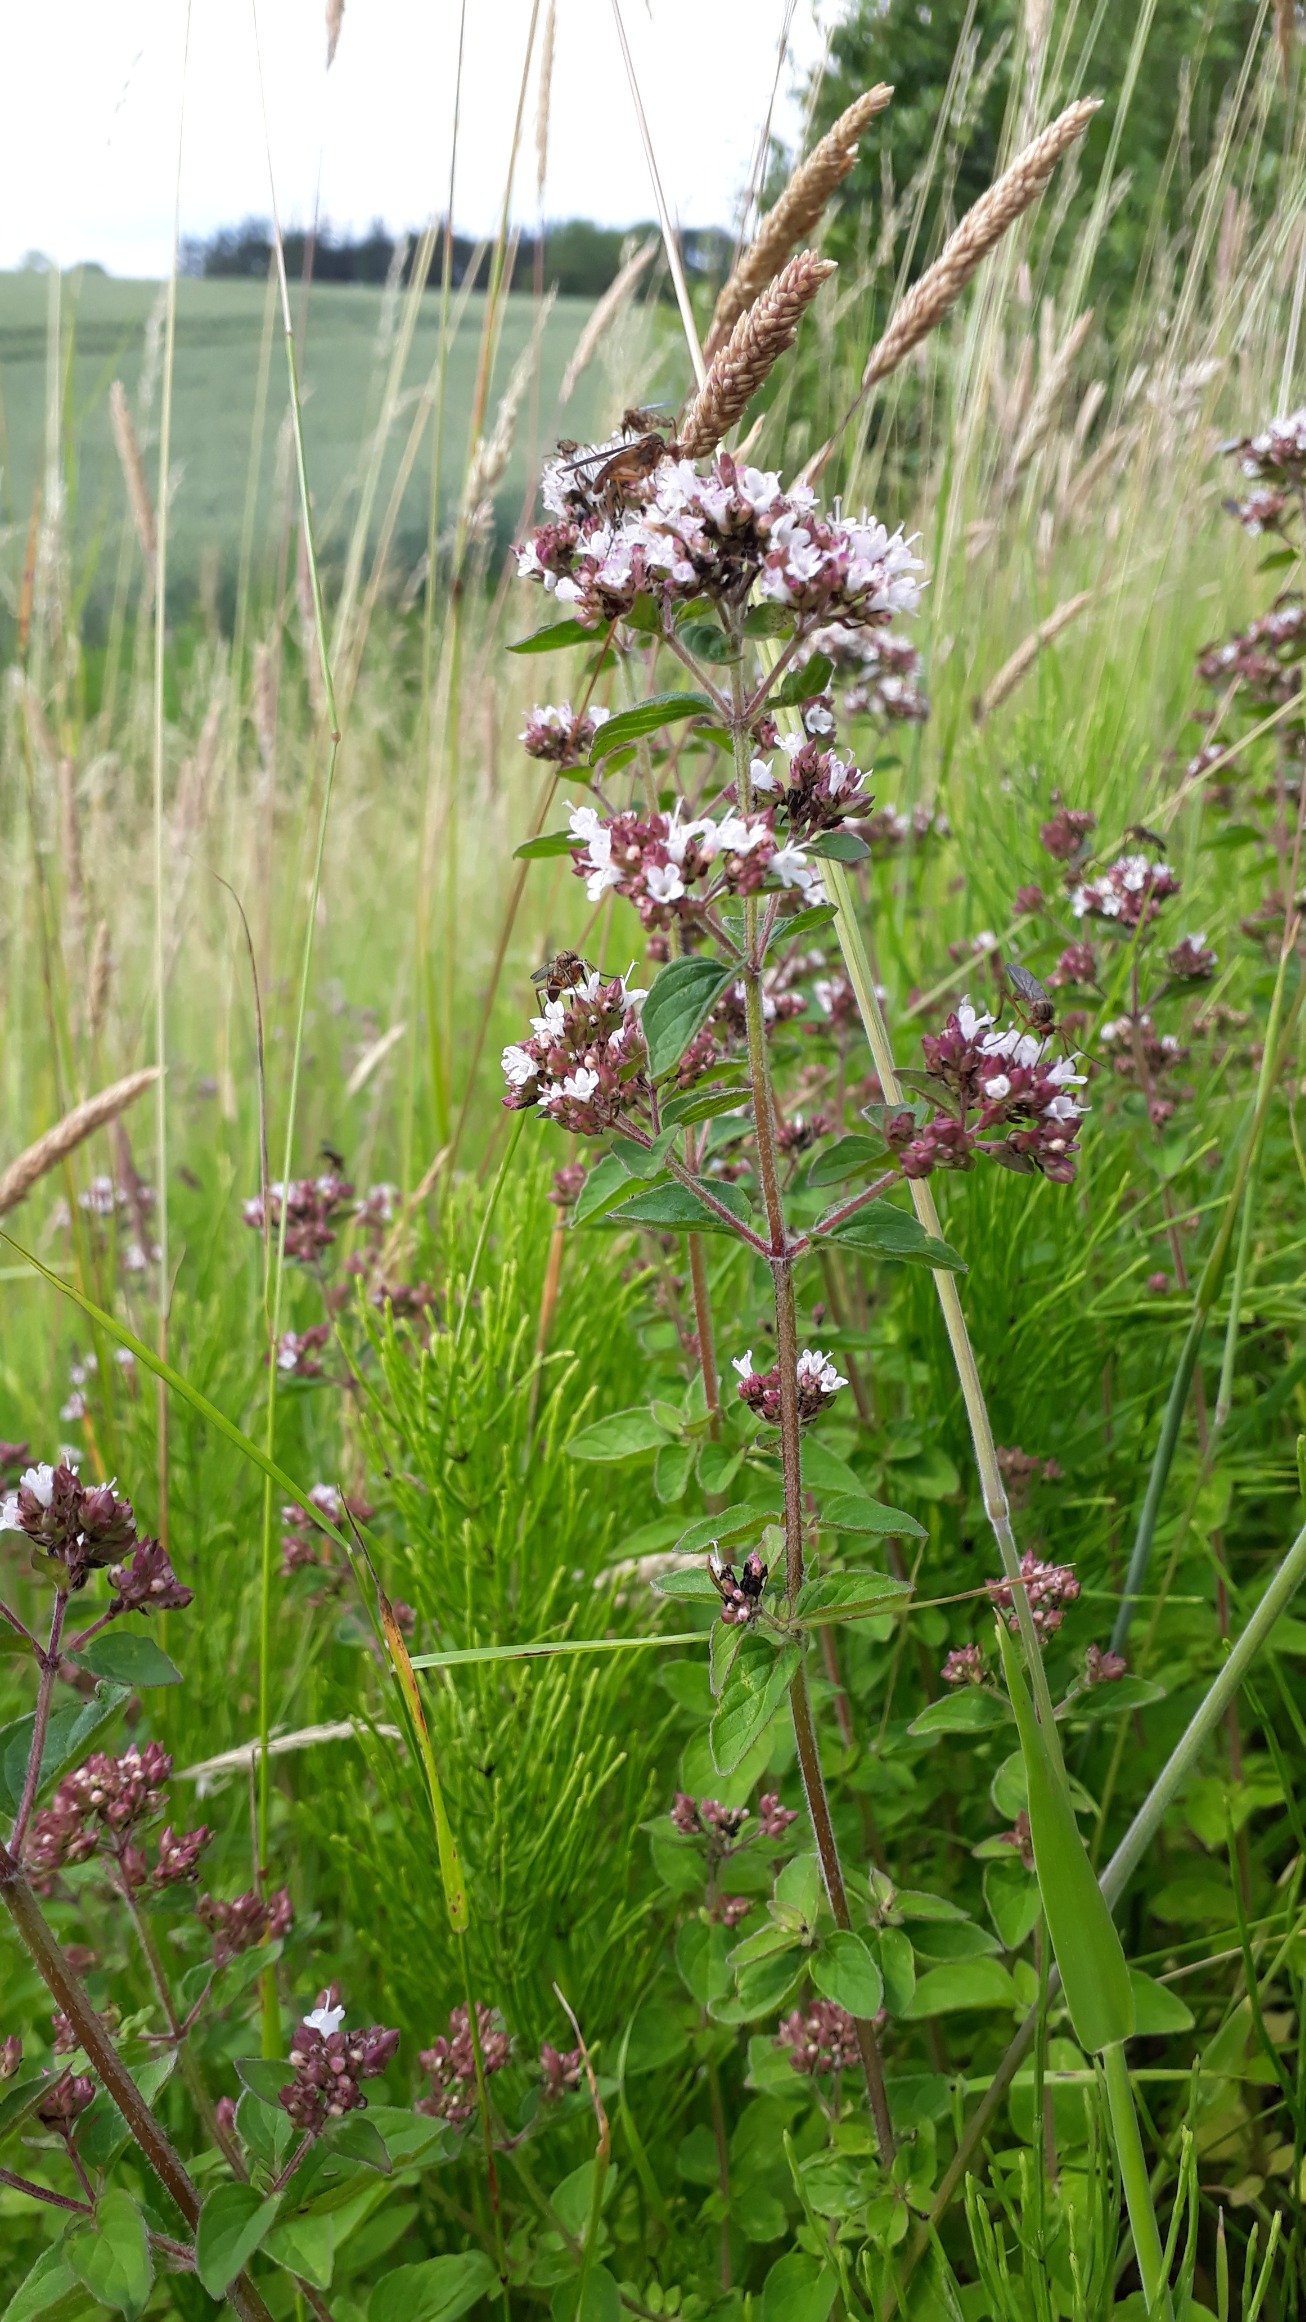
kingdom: Plantae
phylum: Tracheophyta
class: Magnoliopsida
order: Lamiales
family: Lamiaceae
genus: Origanum
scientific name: Origanum vulgare
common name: Merian
